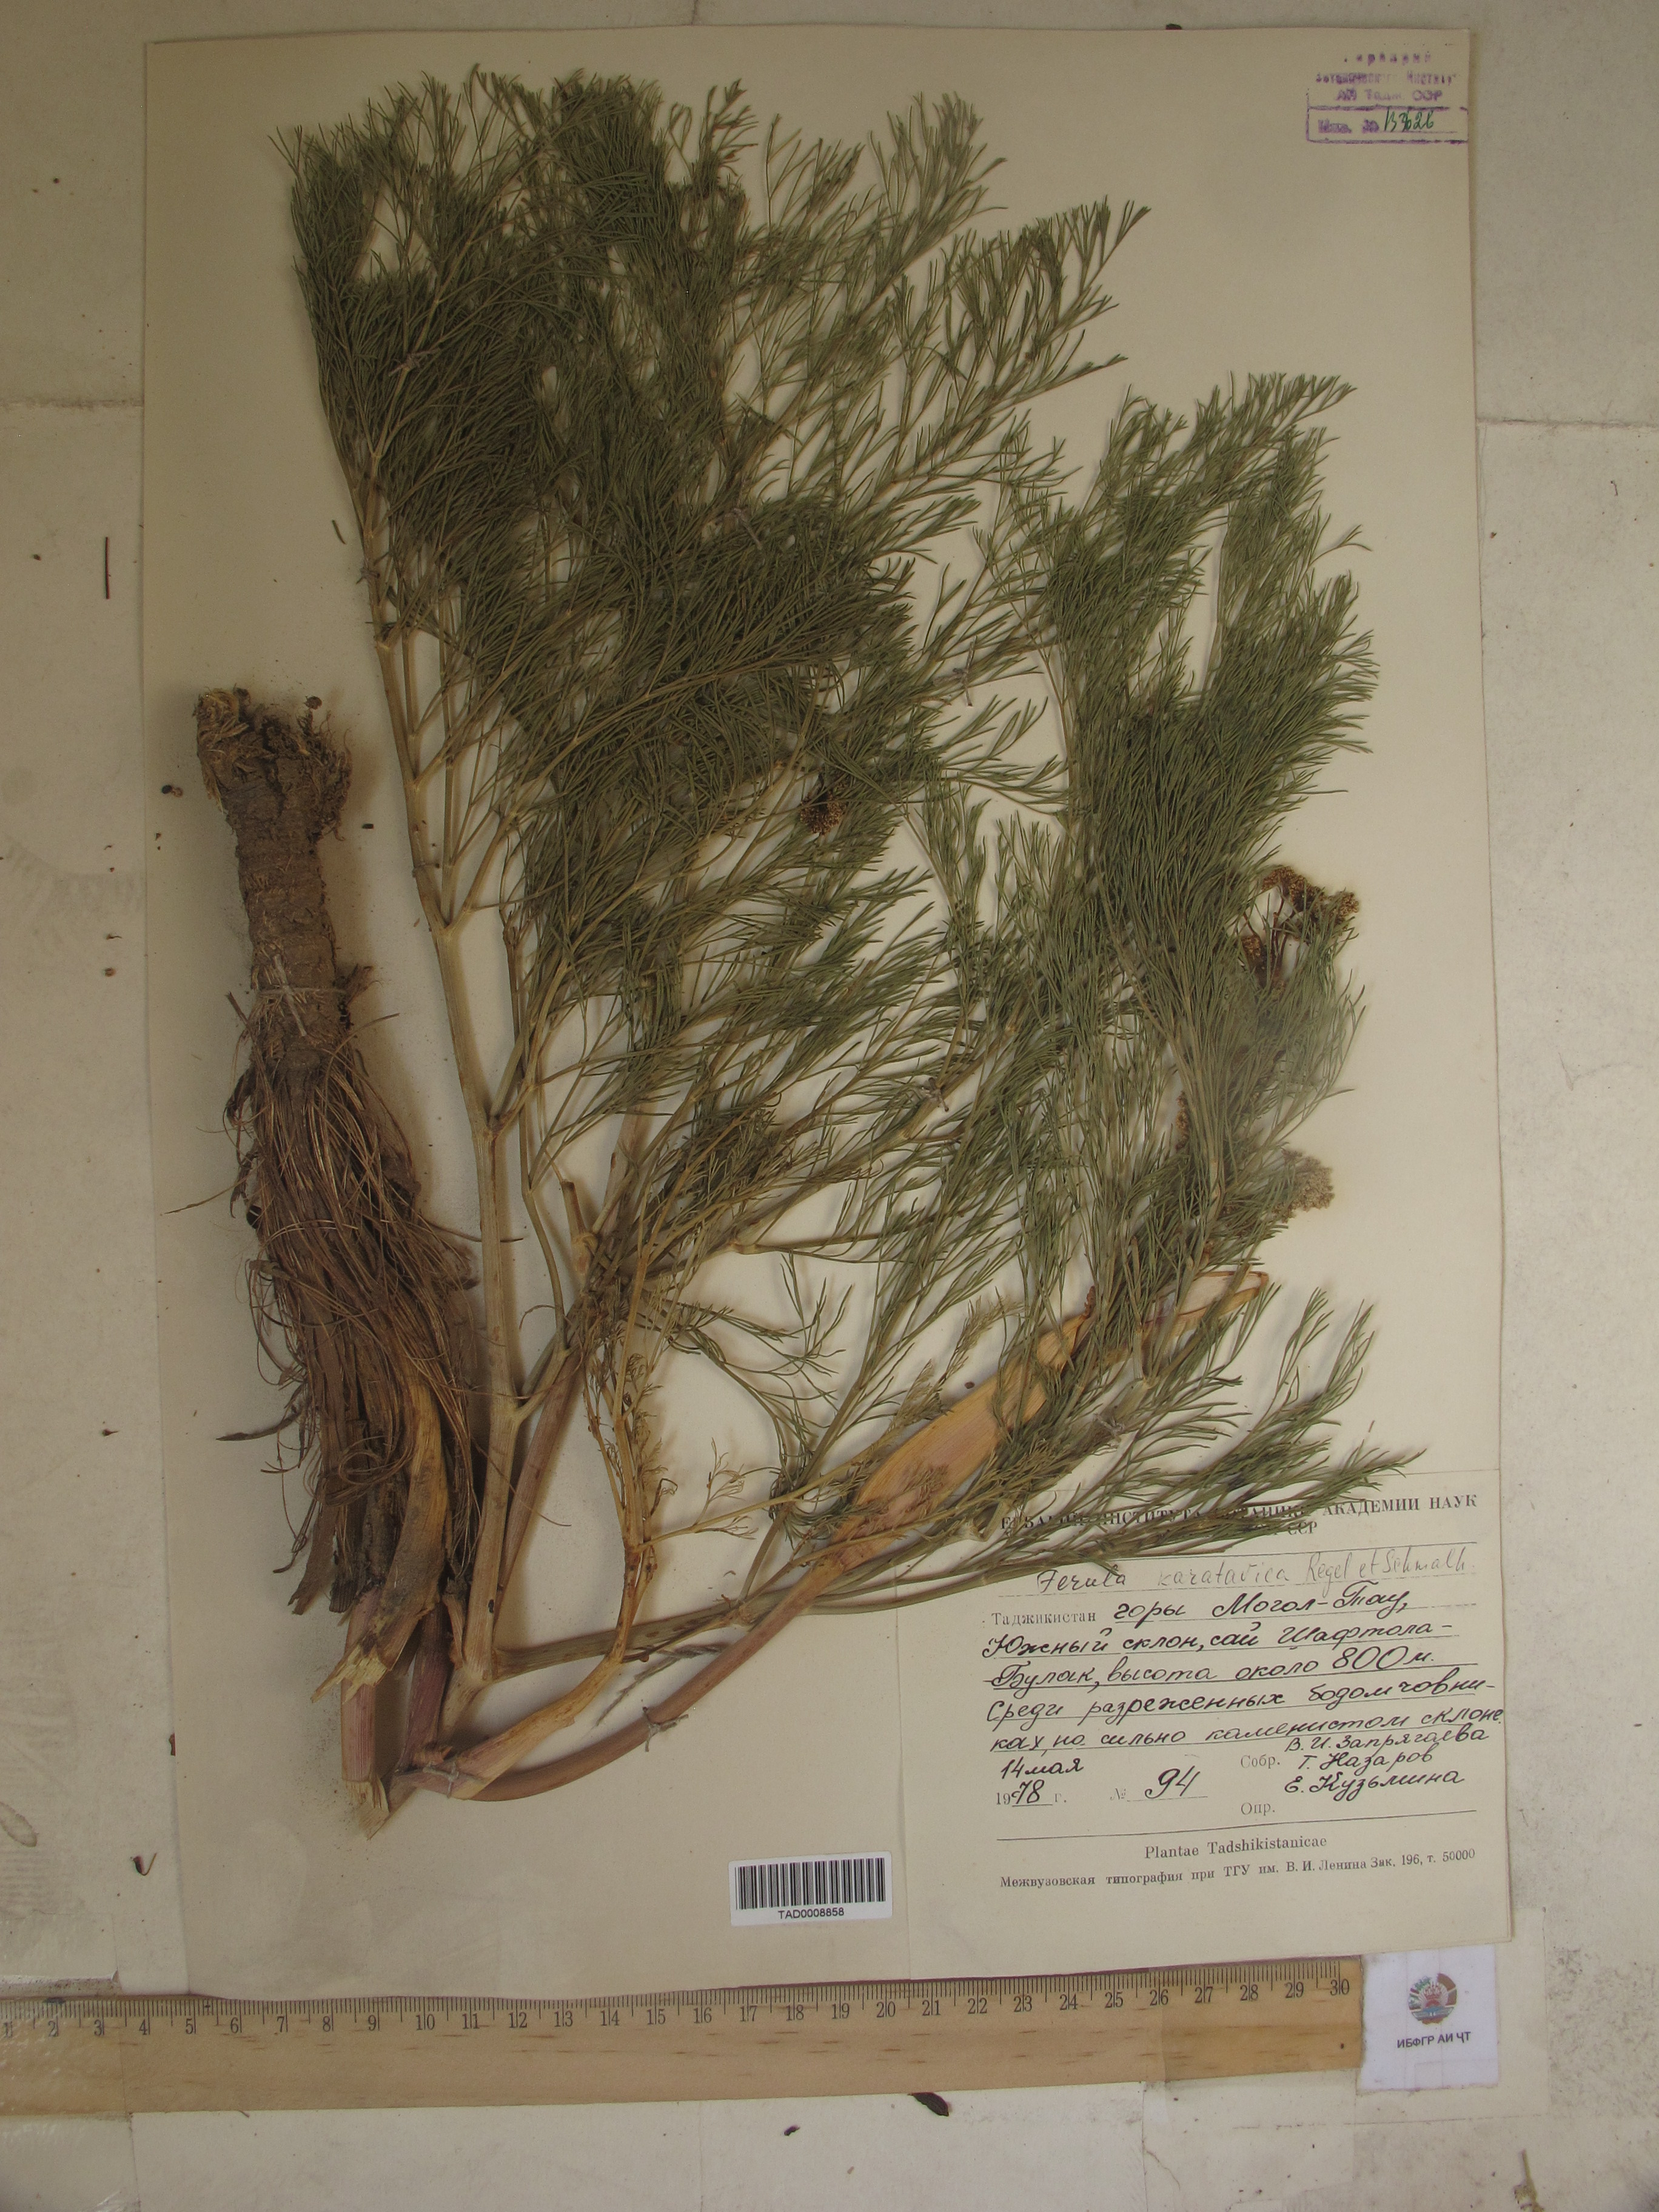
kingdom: Plantae
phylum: Tracheophyta
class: Magnoliopsida
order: Apiales
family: Apiaceae
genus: Ferula
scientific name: Ferula karatavica
